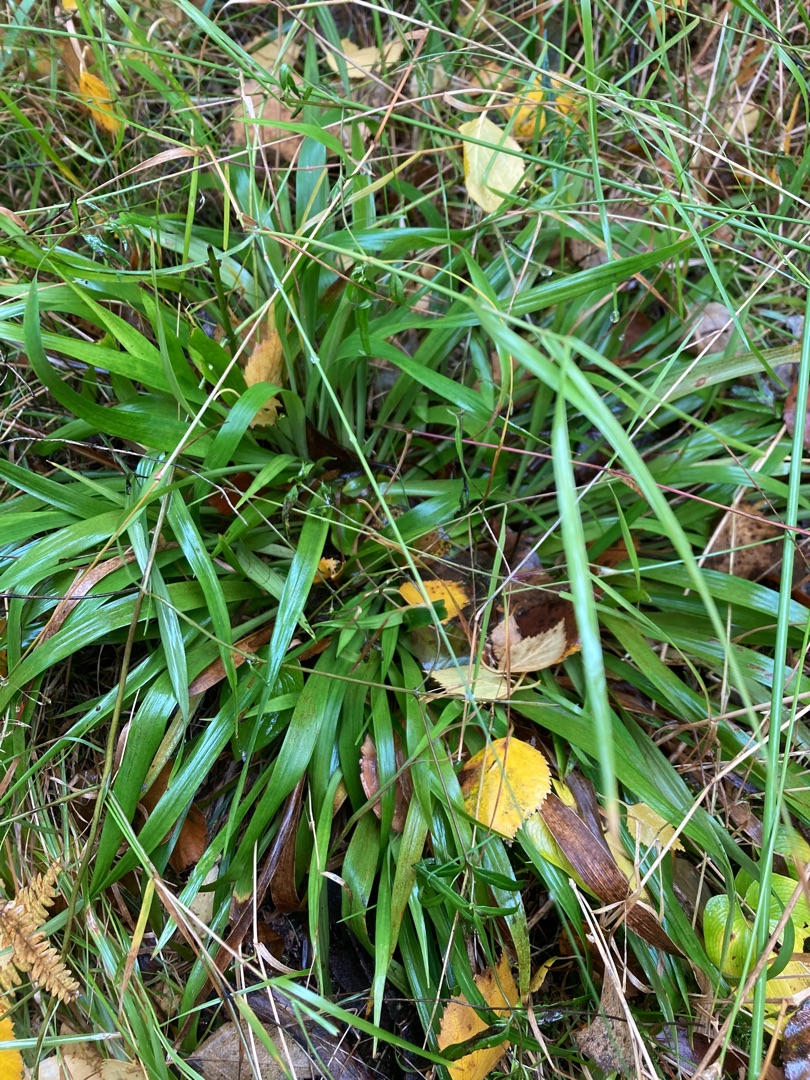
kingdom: Plantae
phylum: Tracheophyta
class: Liliopsida
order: Poales
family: Juncaceae
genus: Luzula
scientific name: Luzula pilosa
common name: Håret frytle
